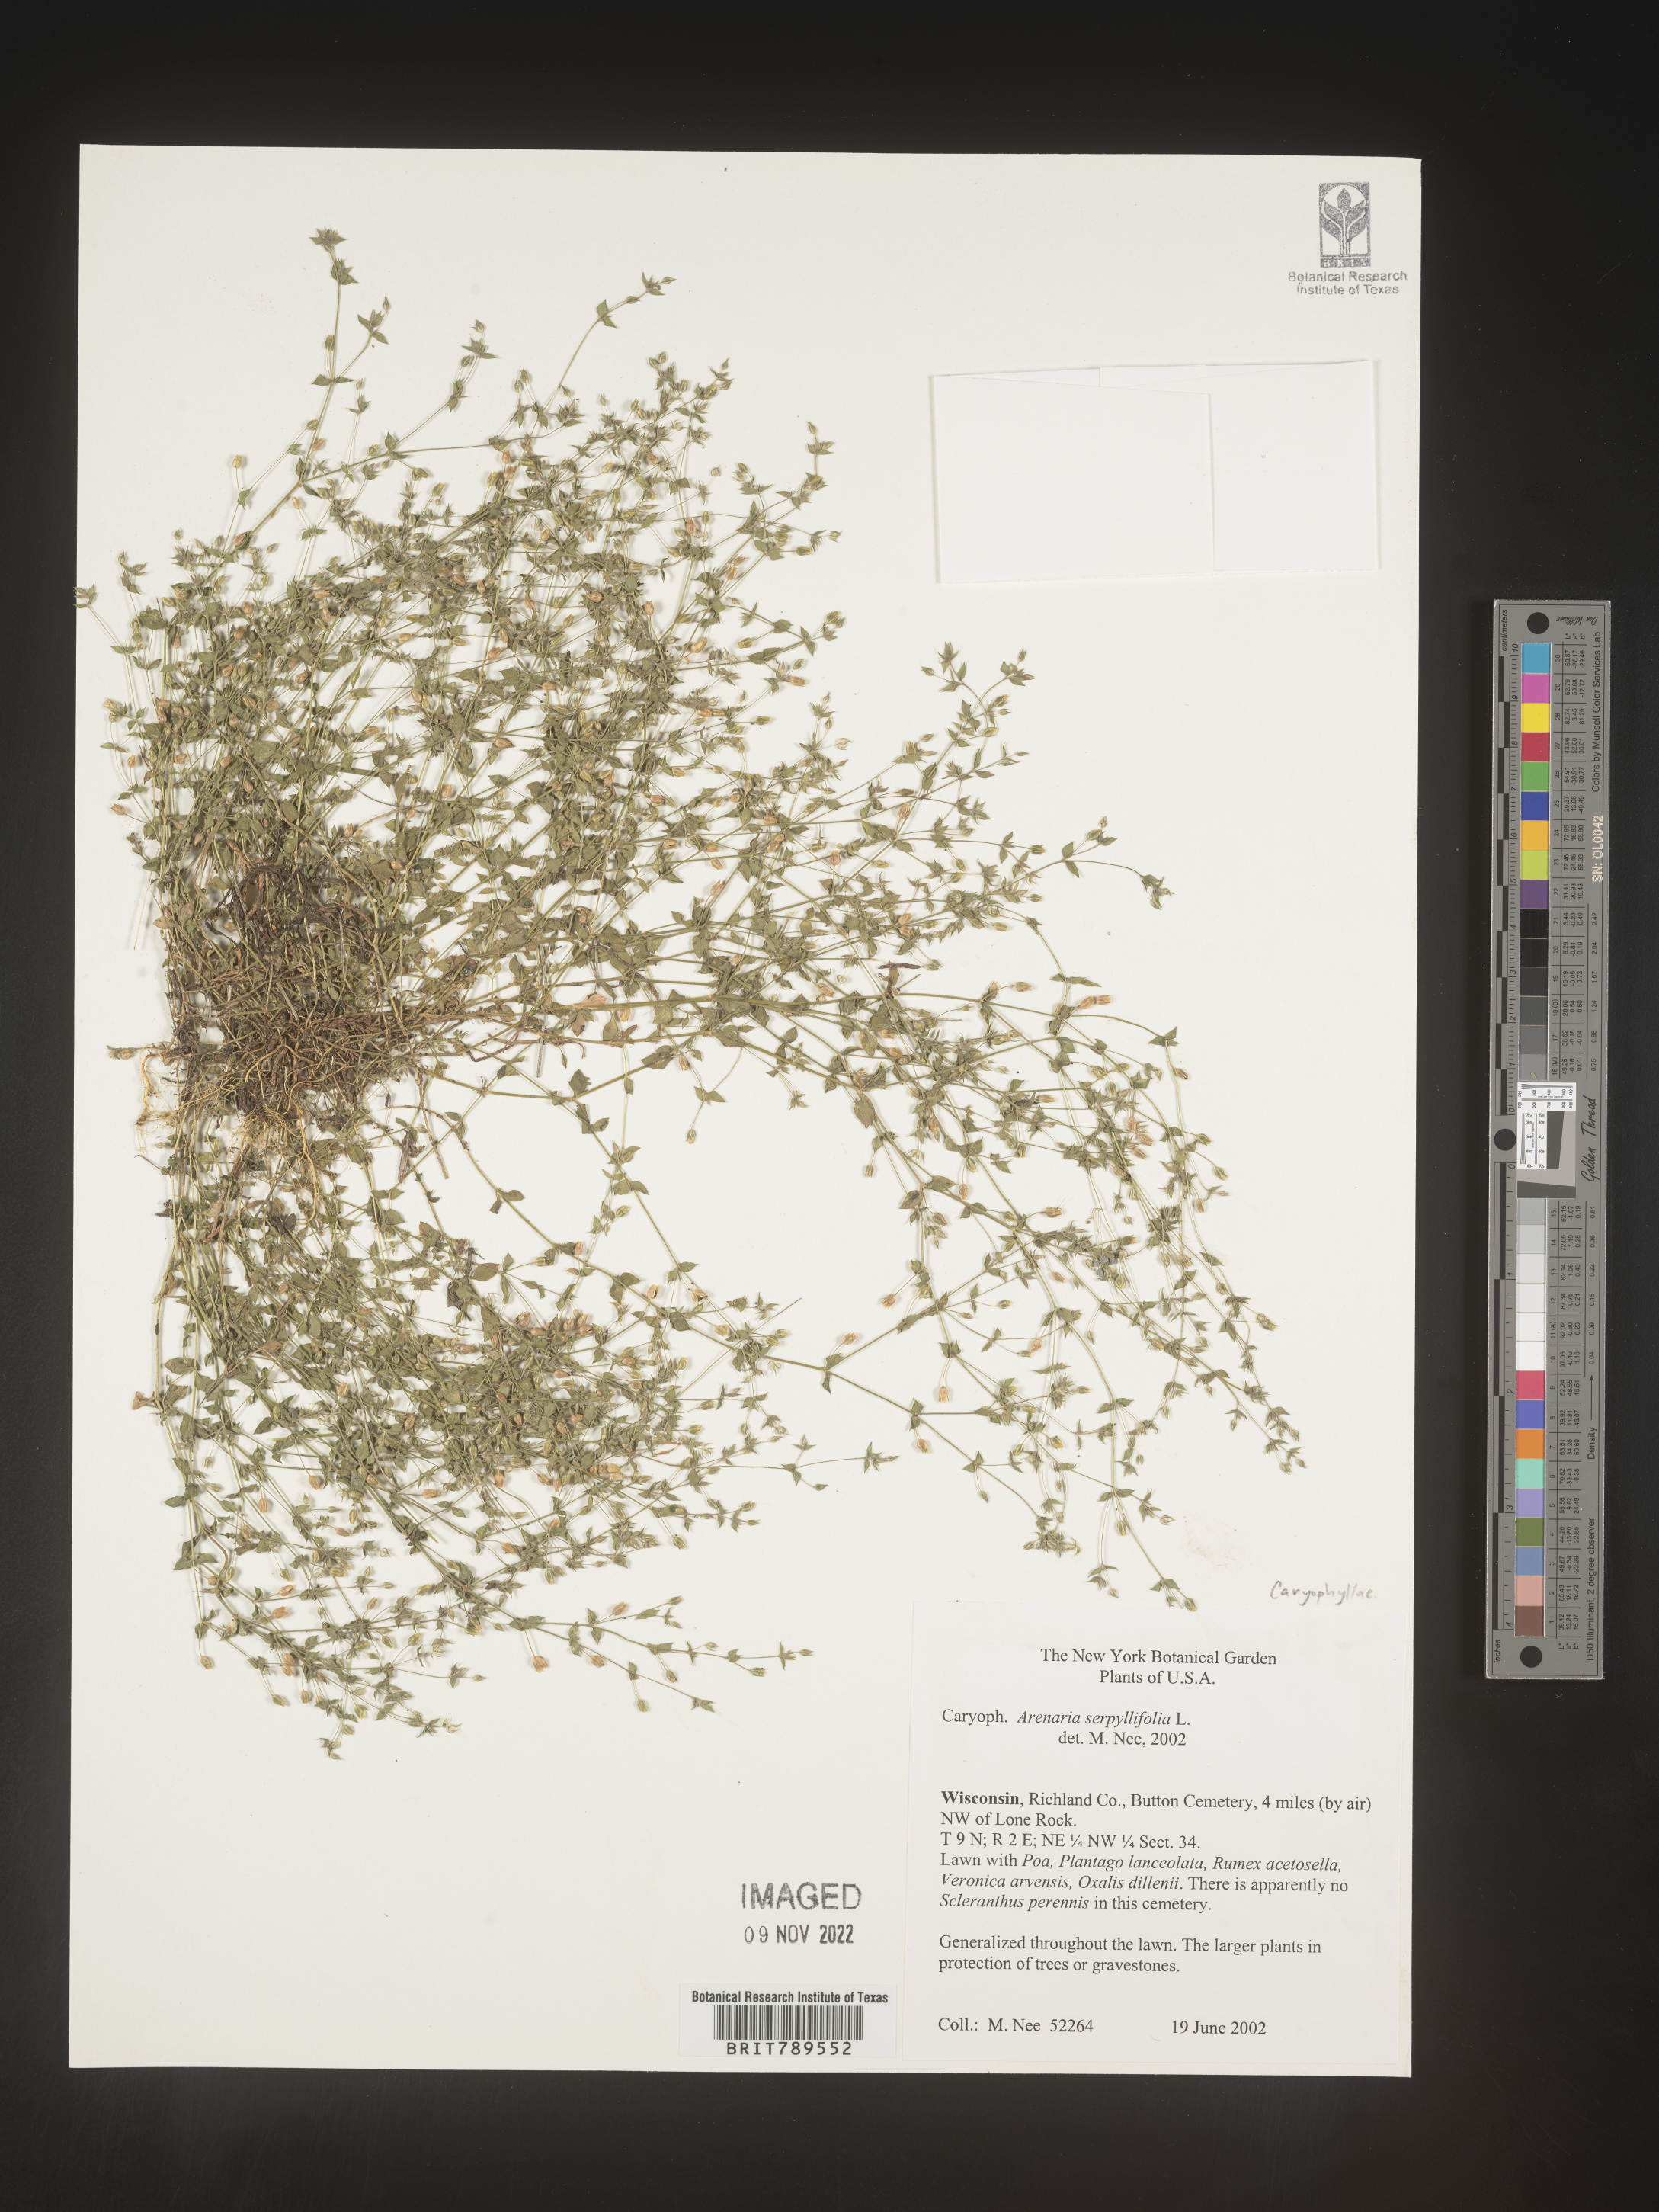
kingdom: Plantae
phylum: Tracheophyta
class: Magnoliopsida
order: Caryophyllales
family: Caryophyllaceae
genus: Arenaria
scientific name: Arenaria serpyllifolia
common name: Thyme-leaved sandwort
